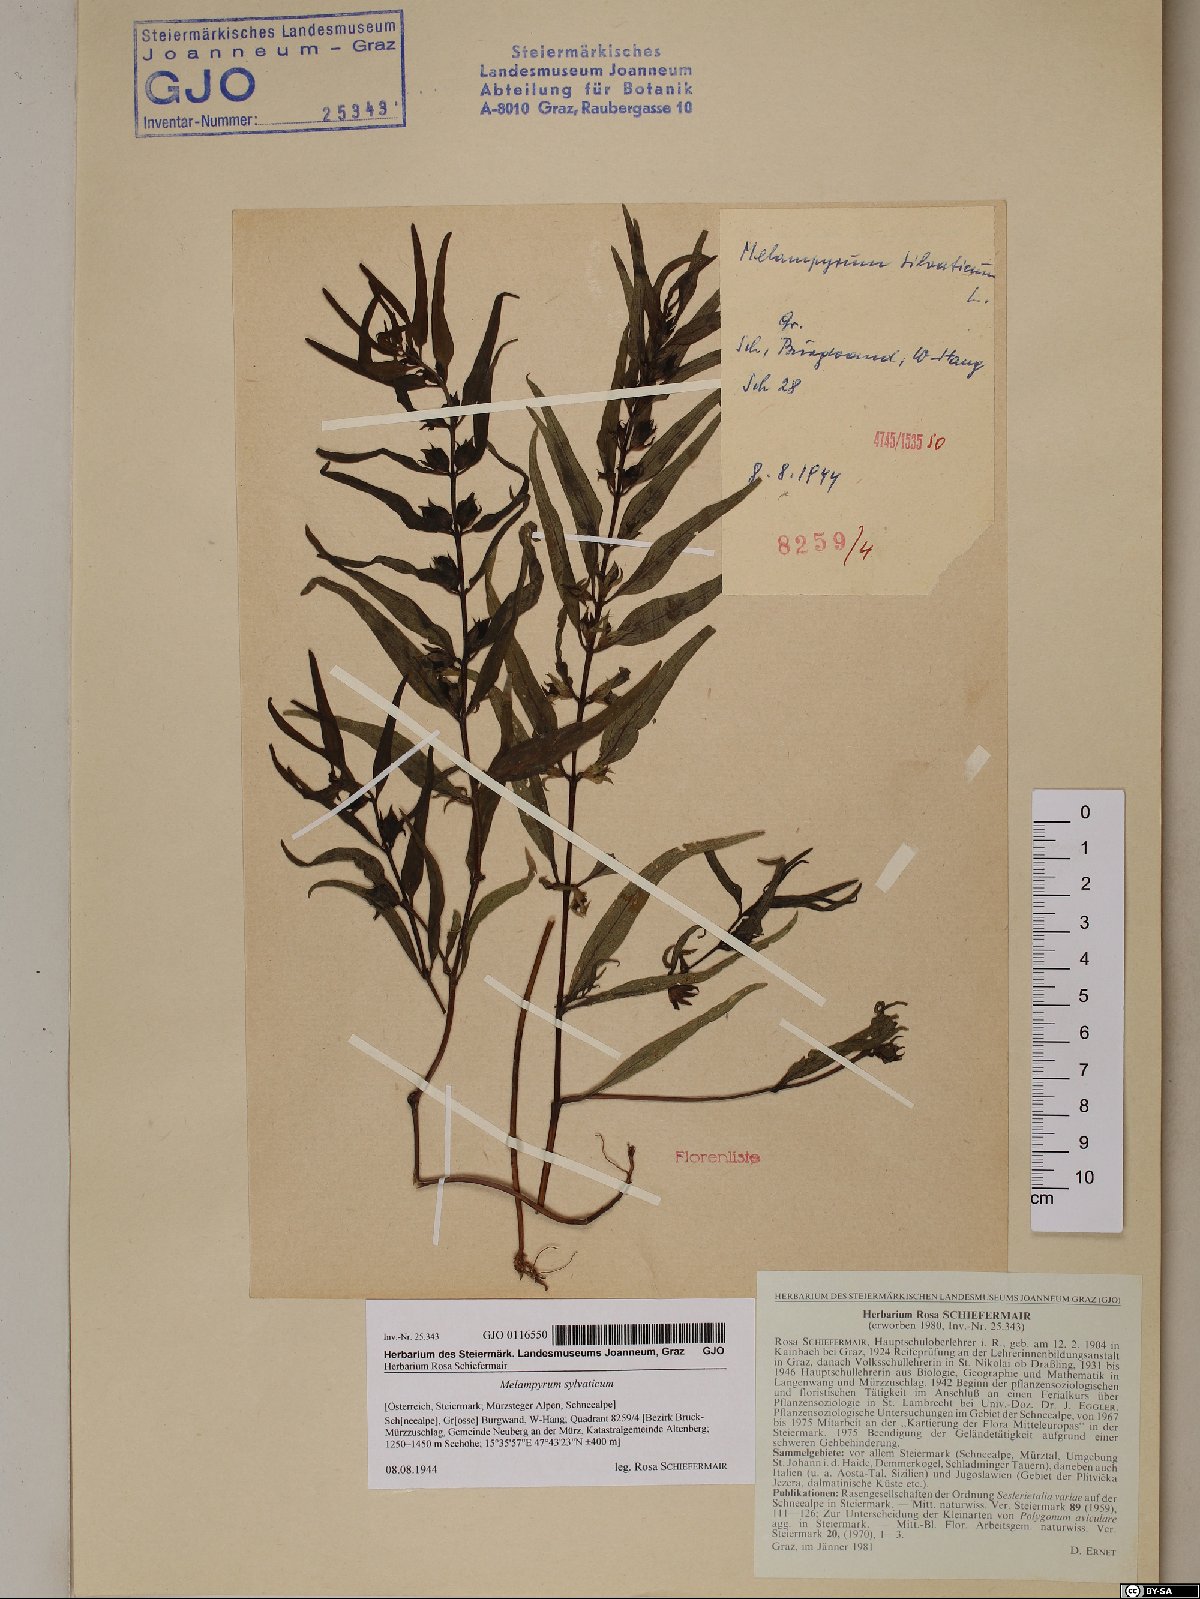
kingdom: Plantae
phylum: Tracheophyta
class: Magnoliopsida
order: Lamiales
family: Orobanchaceae
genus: Melampyrum
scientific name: Melampyrum sylvaticum
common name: Small cow-wheat
